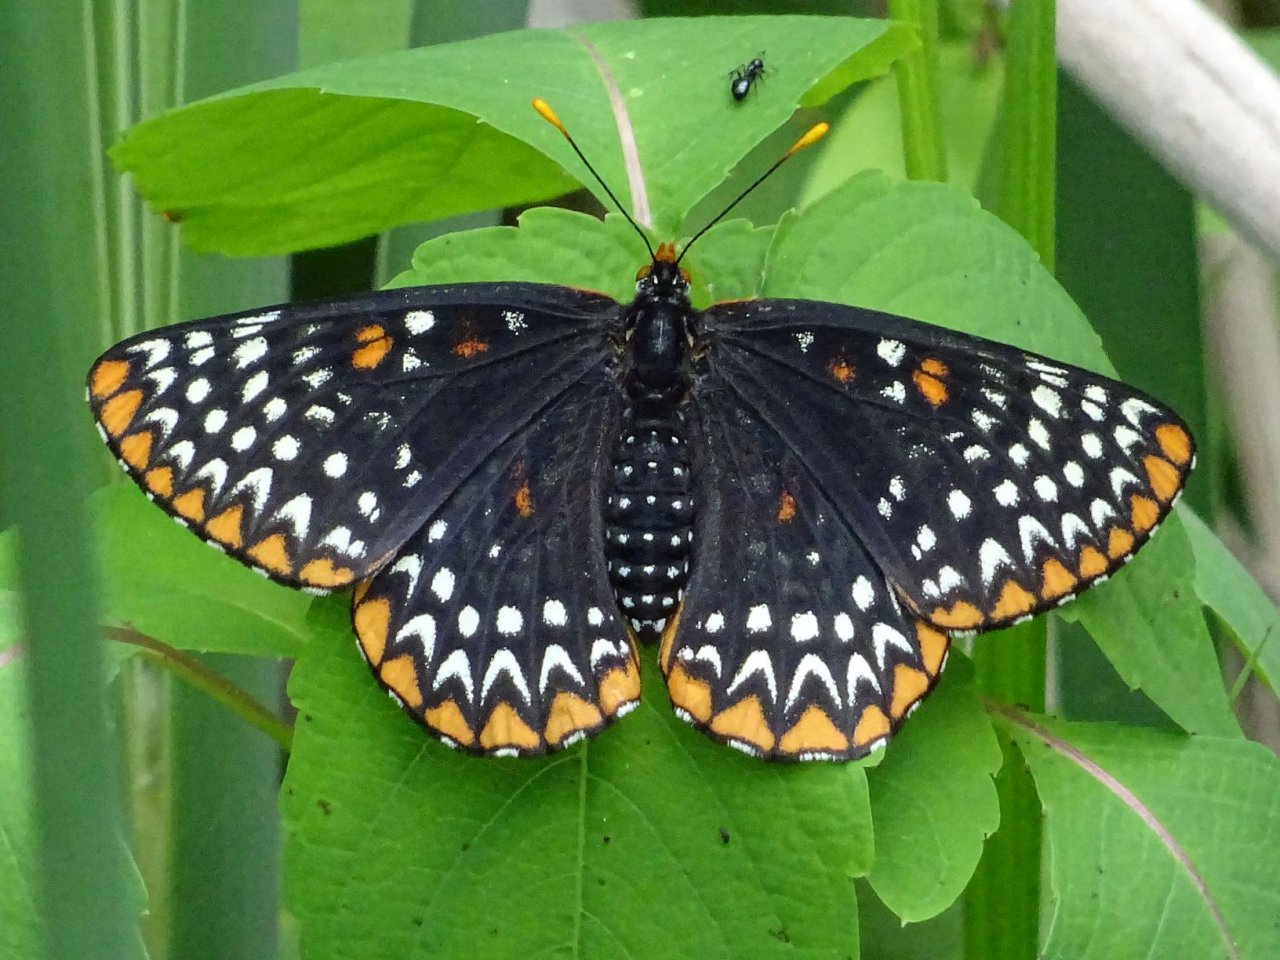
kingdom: Animalia
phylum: Arthropoda
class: Insecta
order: Lepidoptera
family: Nymphalidae
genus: Euphydryas
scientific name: Euphydryas phaeton
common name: Baltimore Checkerspot
